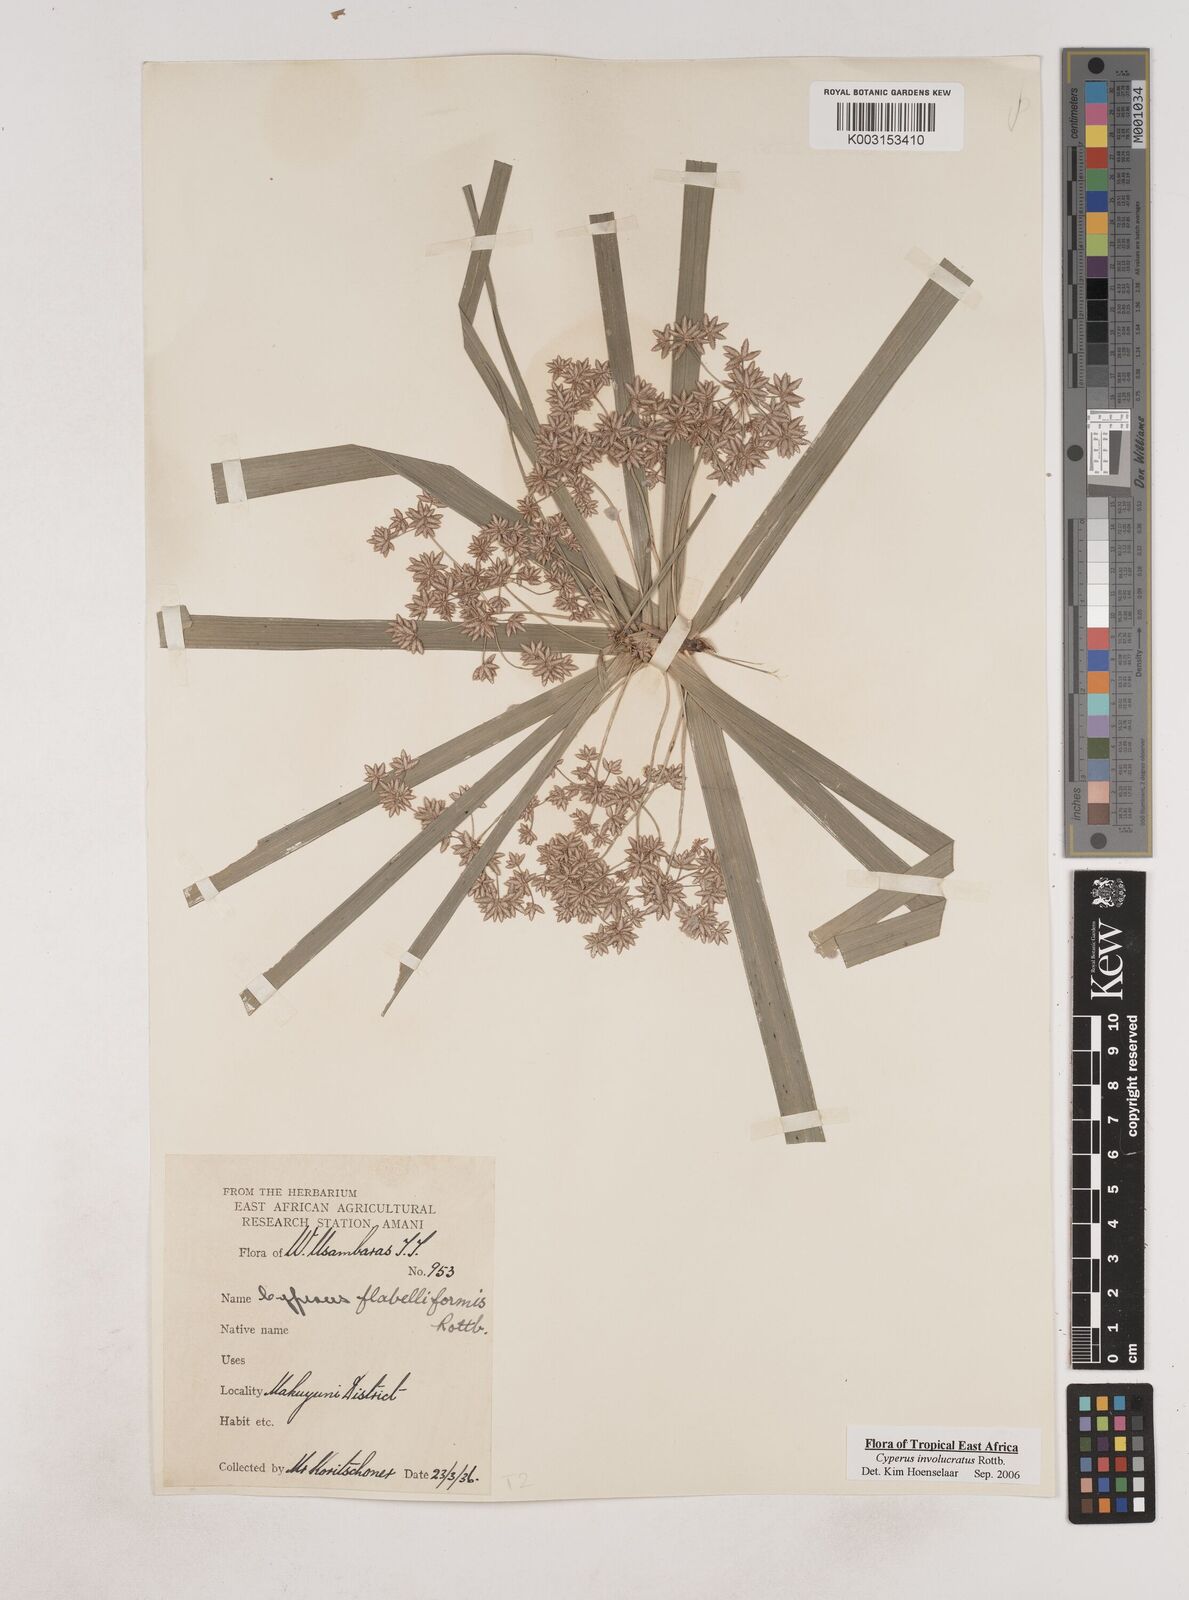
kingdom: Plantae
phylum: Tracheophyta
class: Liliopsida
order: Poales
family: Cyperaceae
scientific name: Cyperaceae
